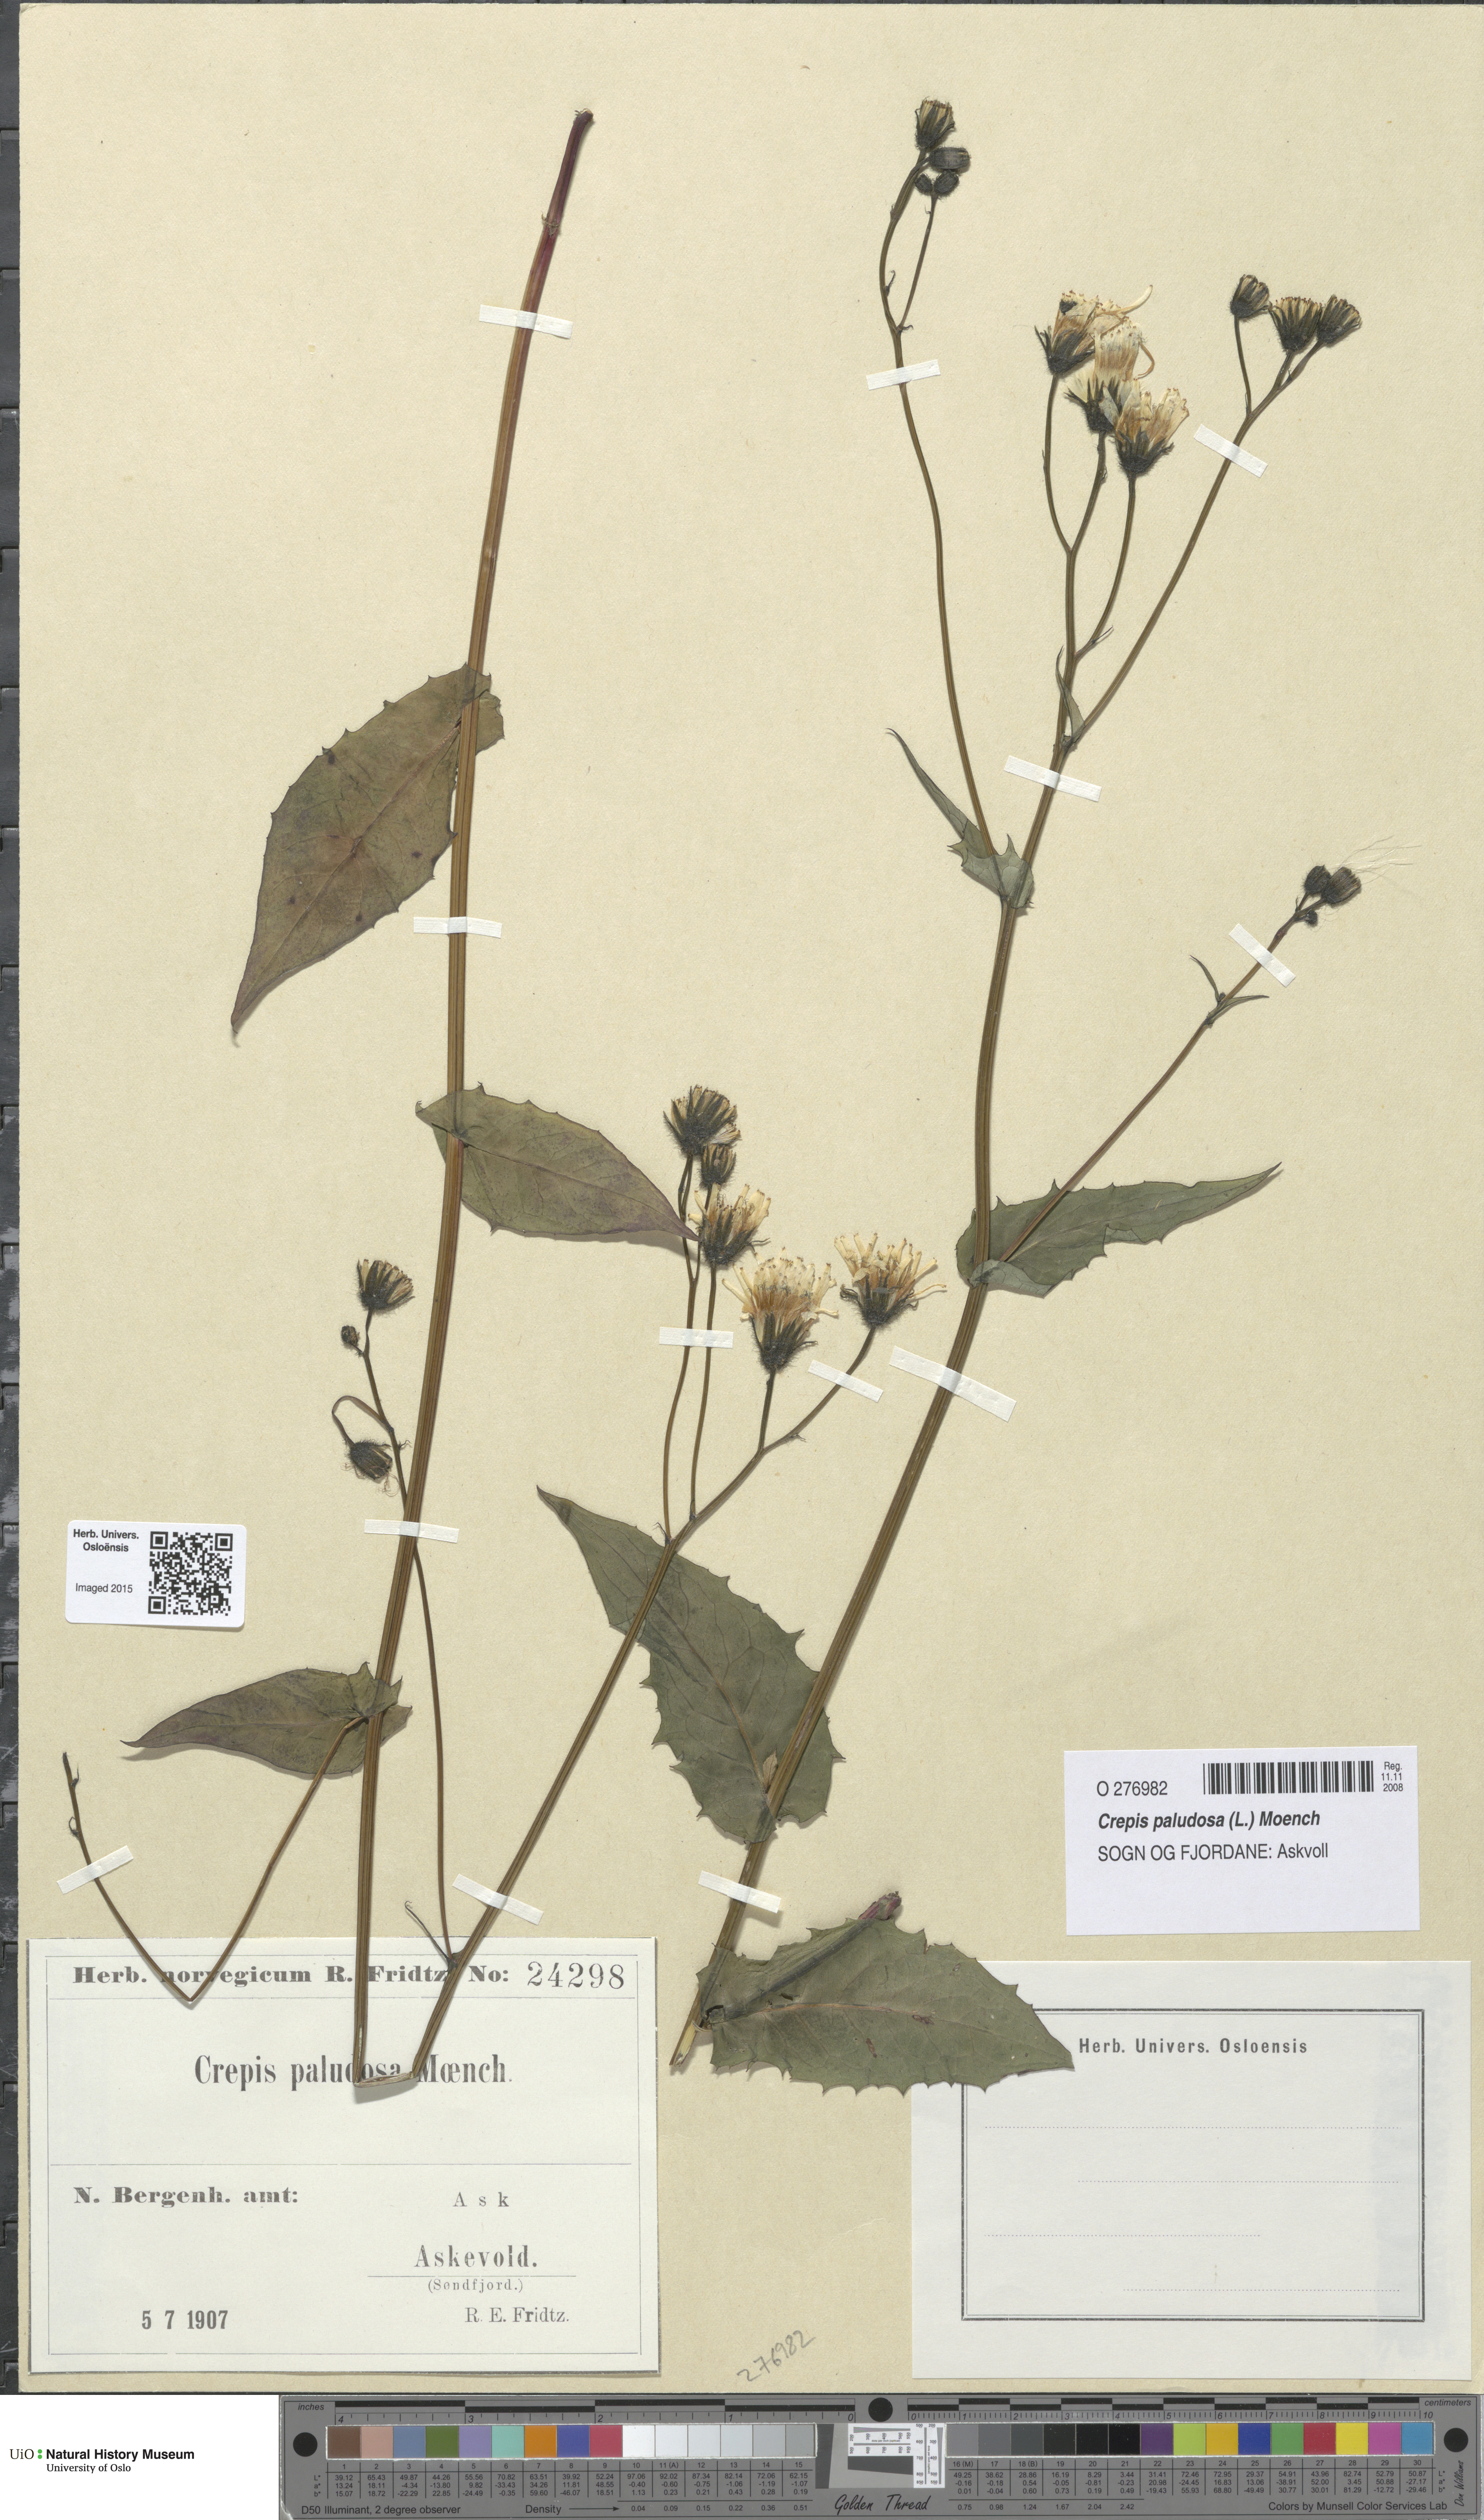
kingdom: Plantae
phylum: Tracheophyta
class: Magnoliopsida
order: Asterales
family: Asteraceae
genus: Crepis
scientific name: Crepis paludosa
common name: Marsh hawk's-beard
